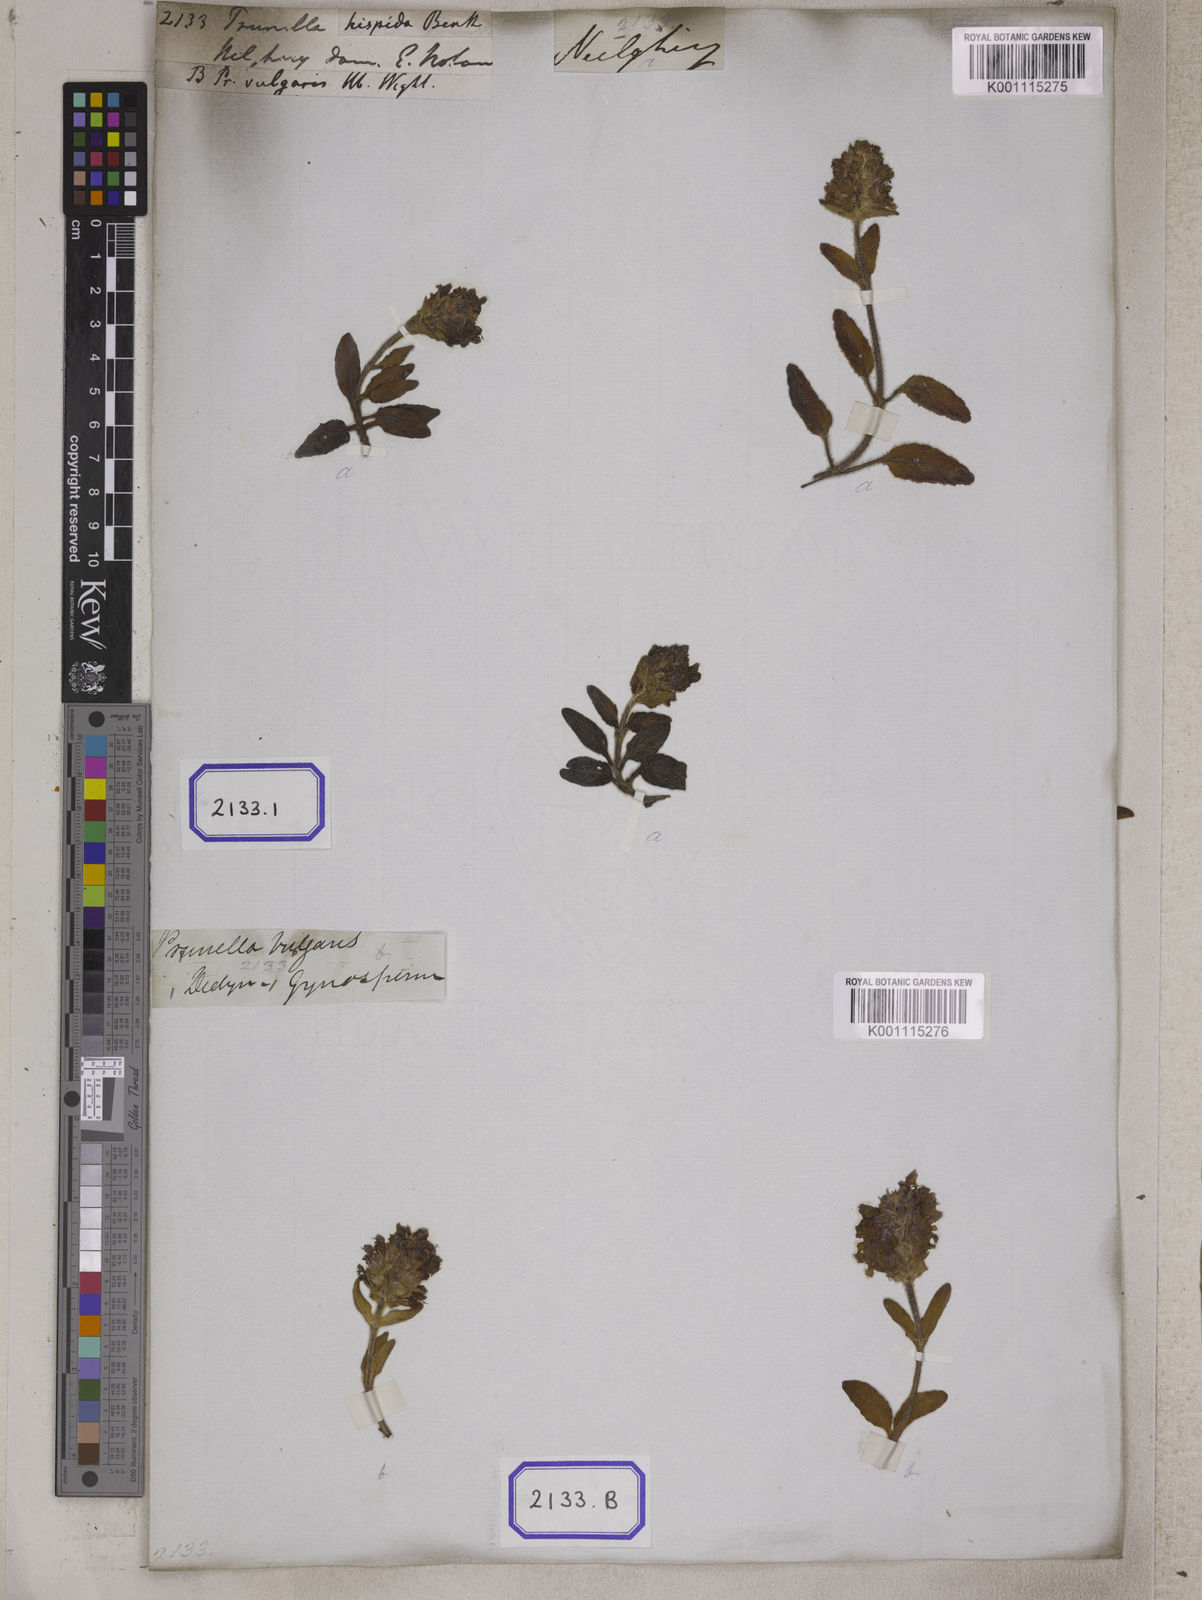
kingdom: Plantae
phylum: Tracheophyta
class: Magnoliopsida
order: Lamiales
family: Lamiaceae
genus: Prunella
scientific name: Prunella vulgaris
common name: Heal-all
